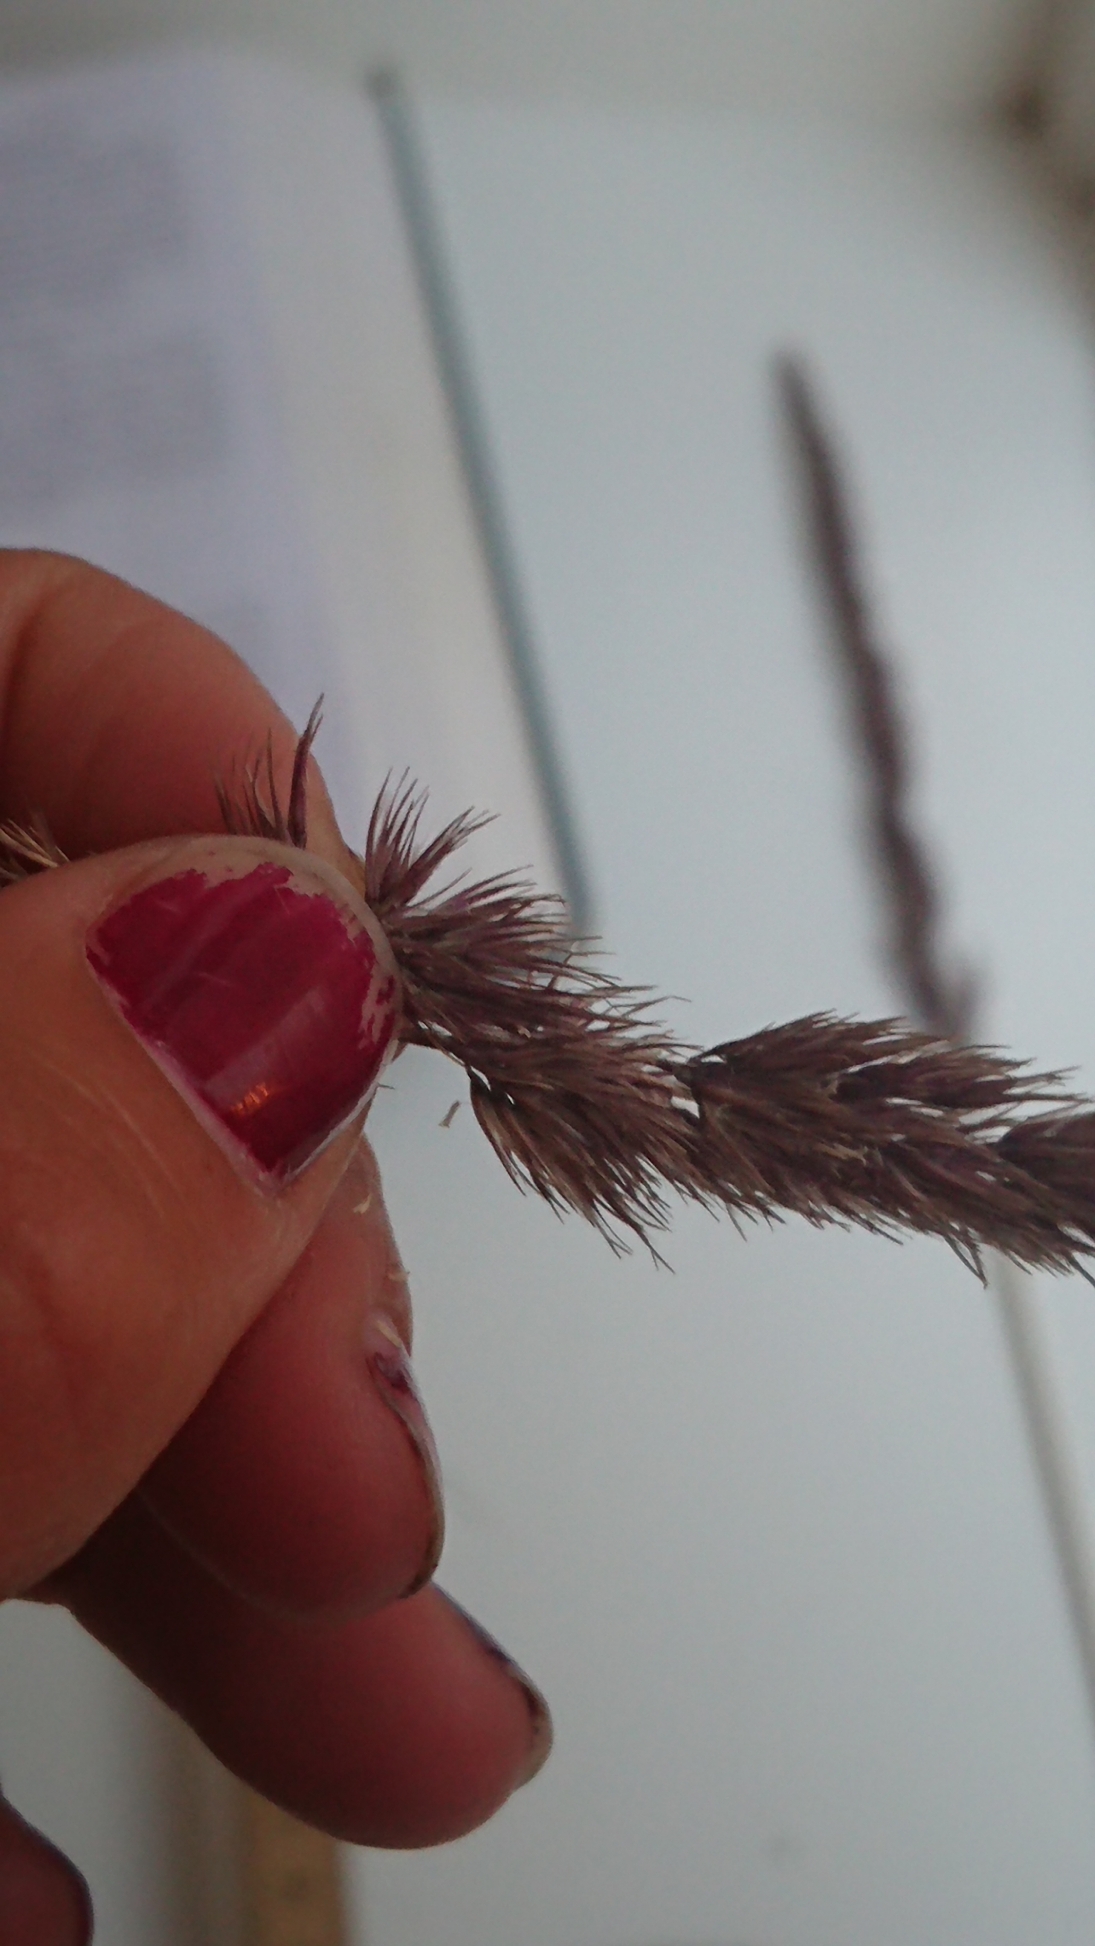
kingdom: Plantae
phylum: Tracheophyta
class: Liliopsida
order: Poales
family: Poaceae
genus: Calamagrostis
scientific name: Calamagrostis epigejos
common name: Bjerg-rørhvene
